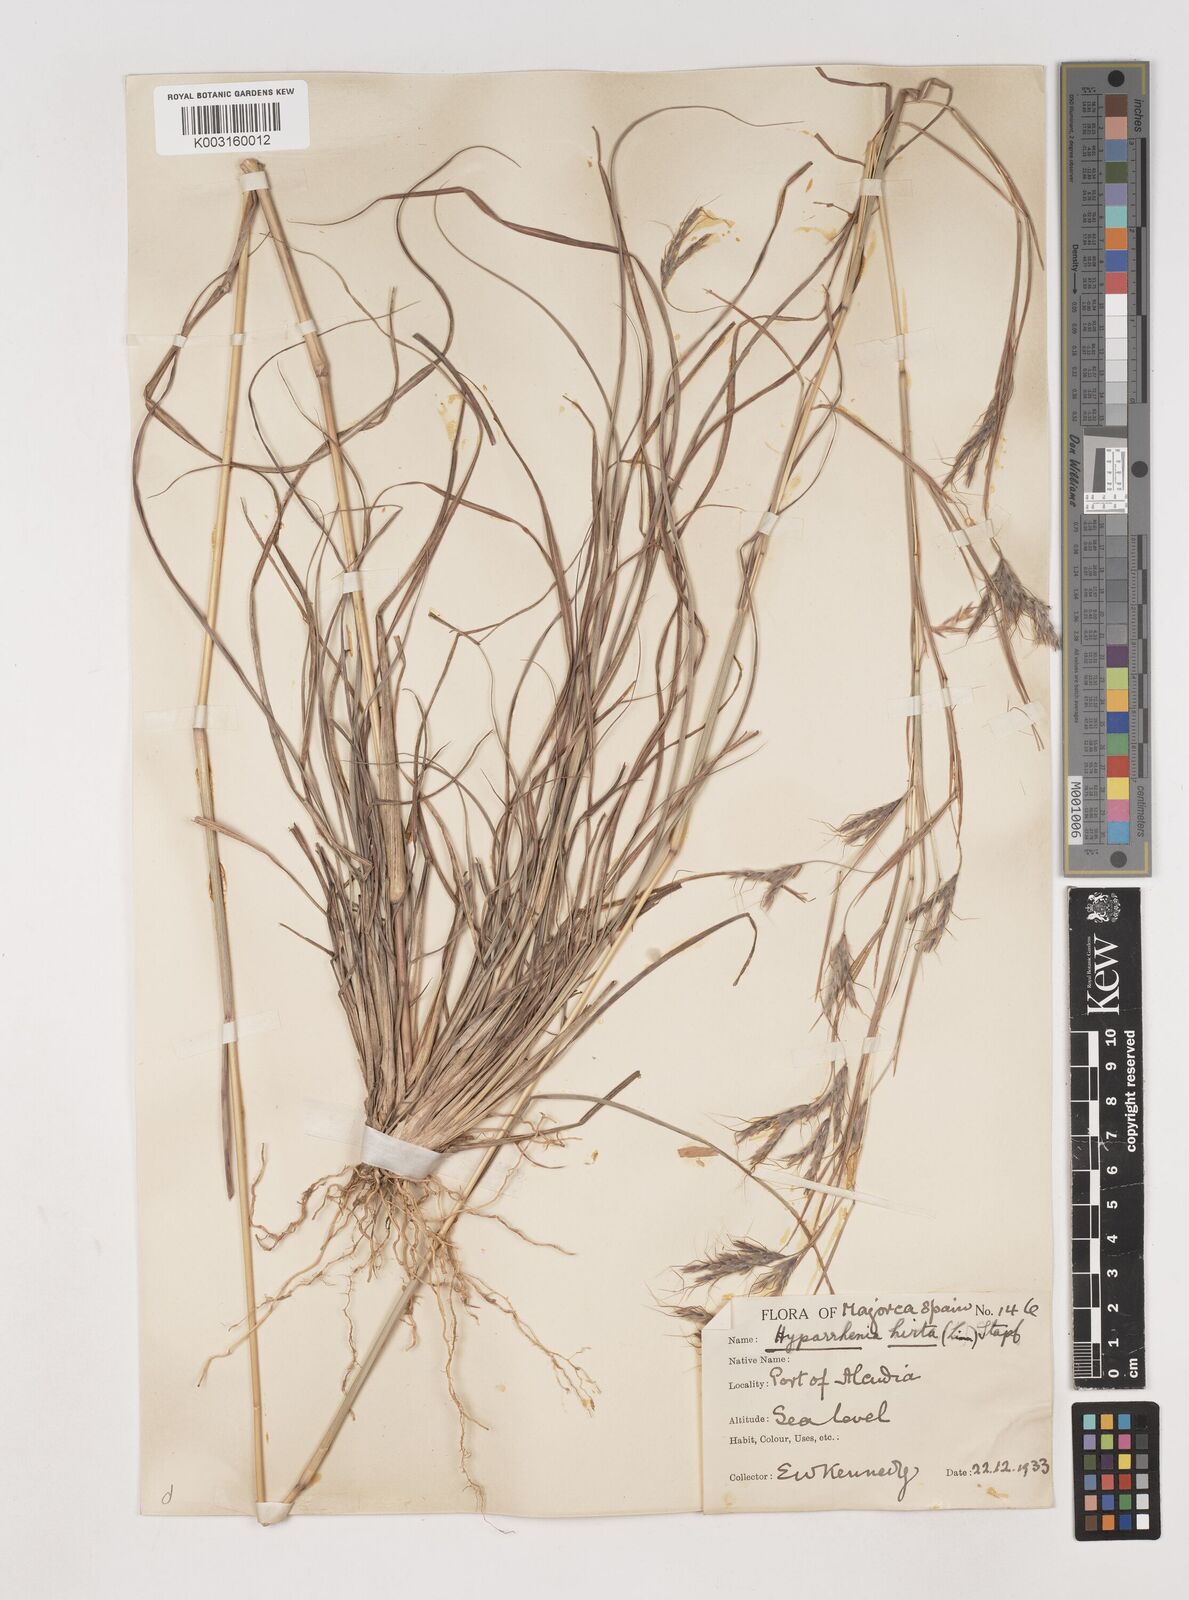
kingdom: Plantae
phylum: Tracheophyta
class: Liliopsida
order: Poales
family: Poaceae
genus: Hyparrhenia
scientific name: Hyparrhenia hirta
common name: Thatching grass
